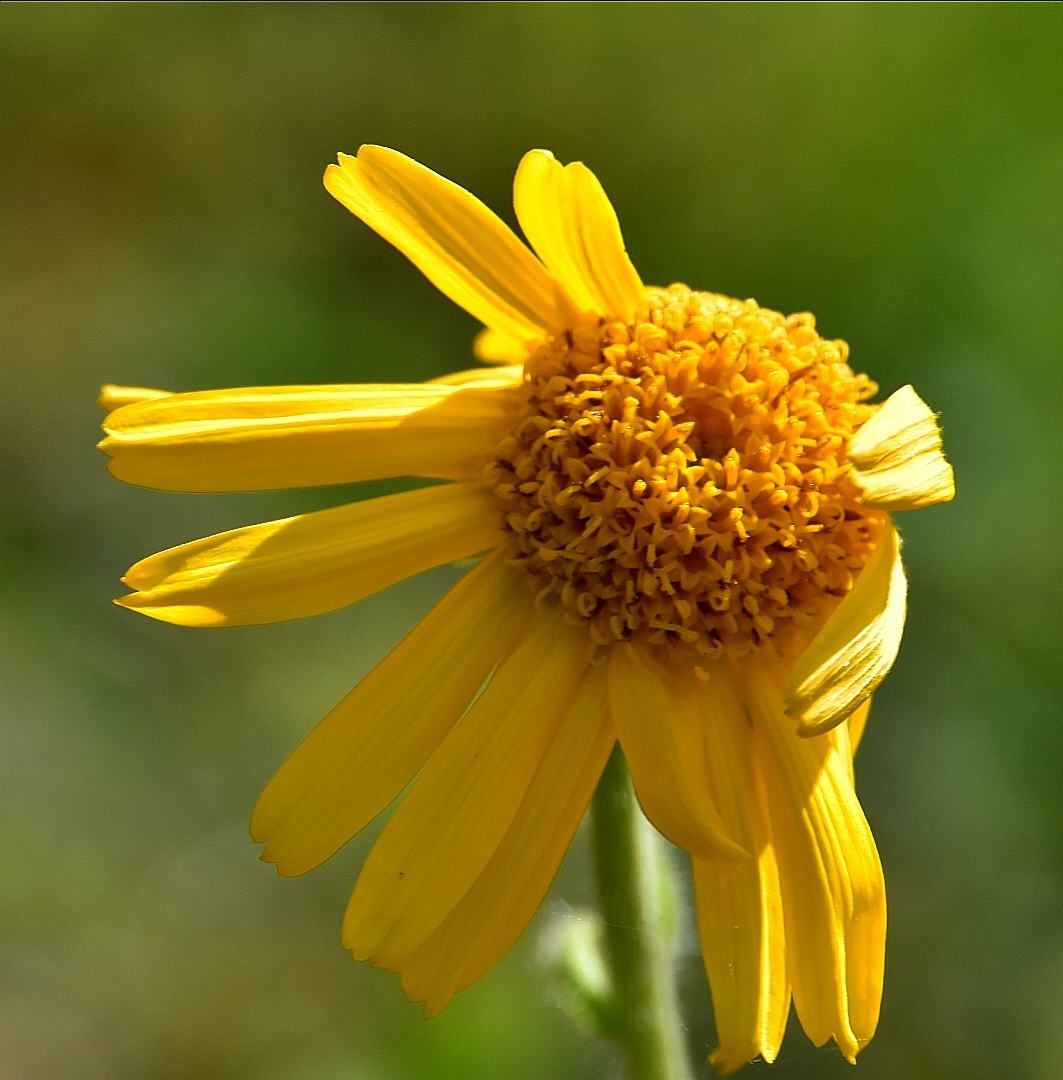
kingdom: Plantae
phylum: Tracheophyta
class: Magnoliopsida
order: Asterales
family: Asteraceae
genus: Arnica
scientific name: Arnica montana
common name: Guldblomme
